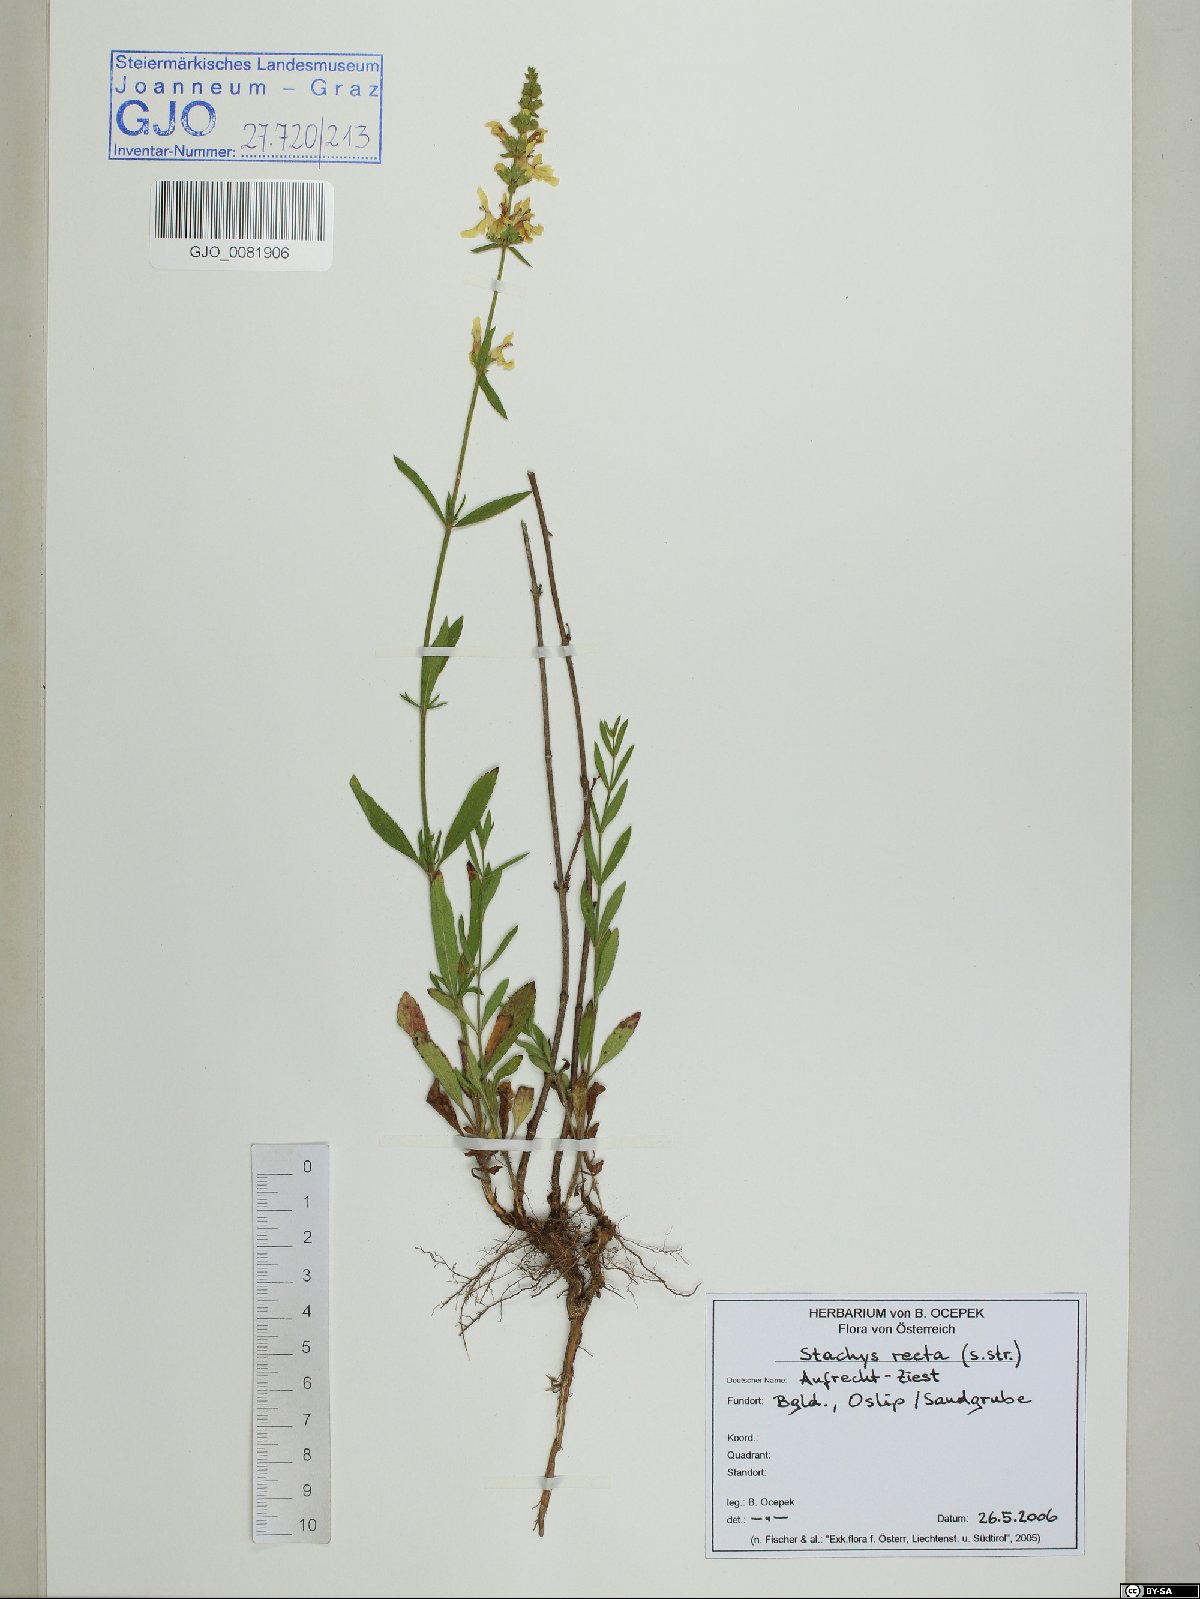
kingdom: Plantae
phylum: Tracheophyta
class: Magnoliopsida
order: Lamiales
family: Lamiaceae
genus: Stachys
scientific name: Stachys recta
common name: Perennial yellow-woundwort
